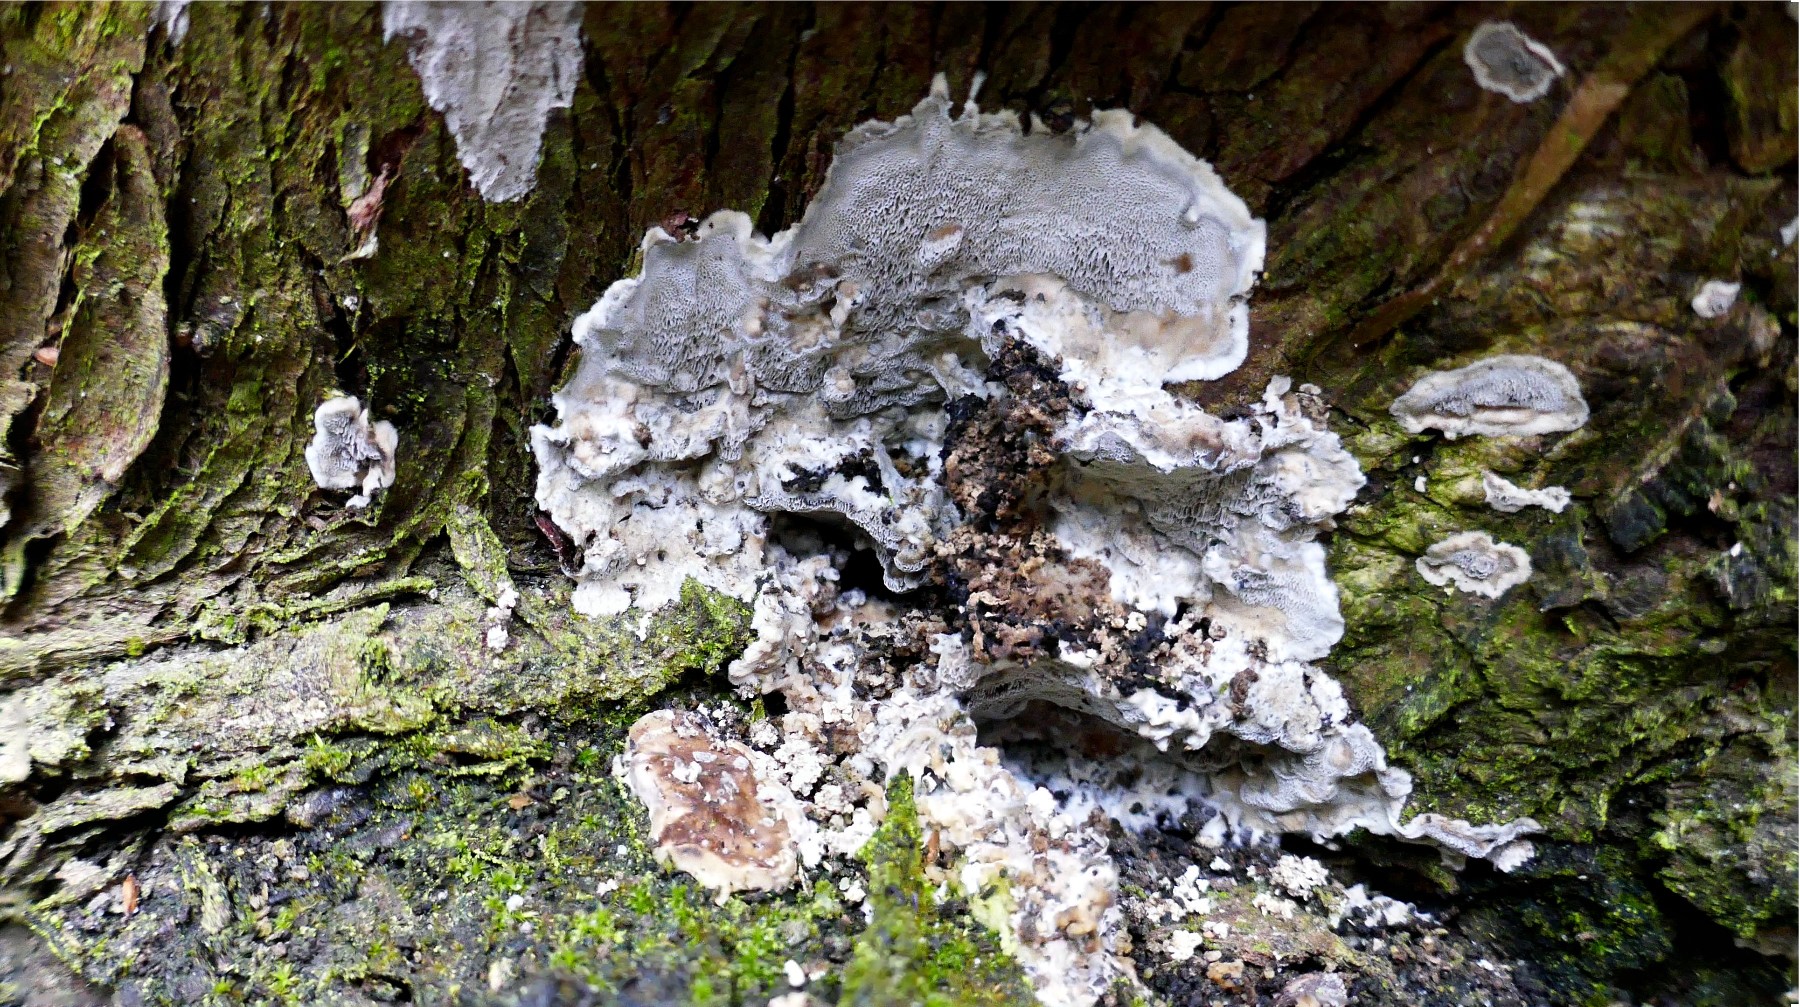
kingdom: Fungi
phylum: Basidiomycota
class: Agaricomycetes
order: Polyporales
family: Phanerochaetaceae
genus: Bjerkandera
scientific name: Bjerkandera adusta
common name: sveden sodporesvamp
